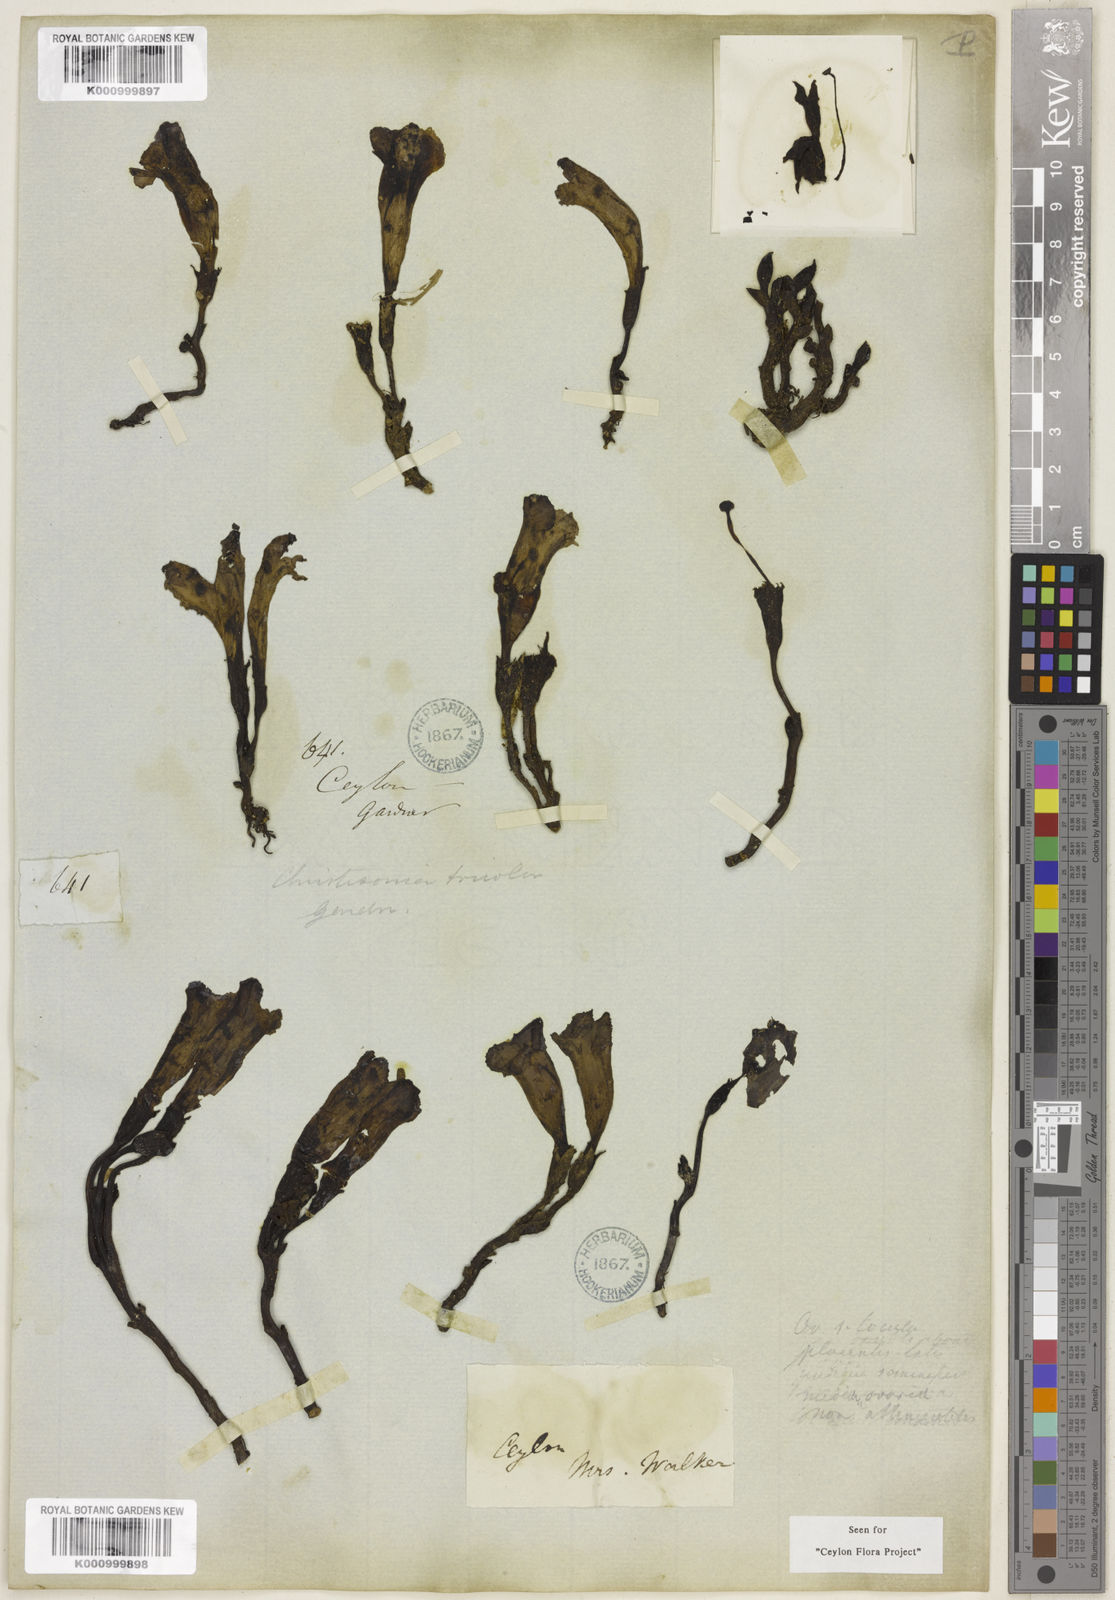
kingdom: Plantae
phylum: Tracheophyta
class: Magnoliopsida
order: Lamiales
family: Orobanchaceae
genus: Christisonia
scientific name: Christisonia tricolor
